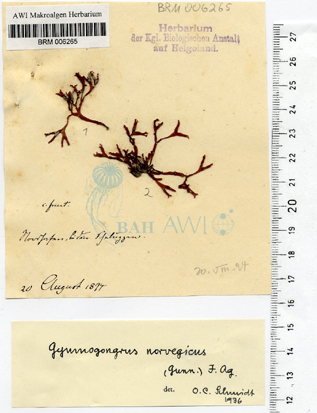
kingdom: Plantae
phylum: Rhodophyta
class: Florideophyceae
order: Gigartinales
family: Gigartinaceae
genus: Chondrus
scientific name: Chondrus crispus
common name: Carrageen
